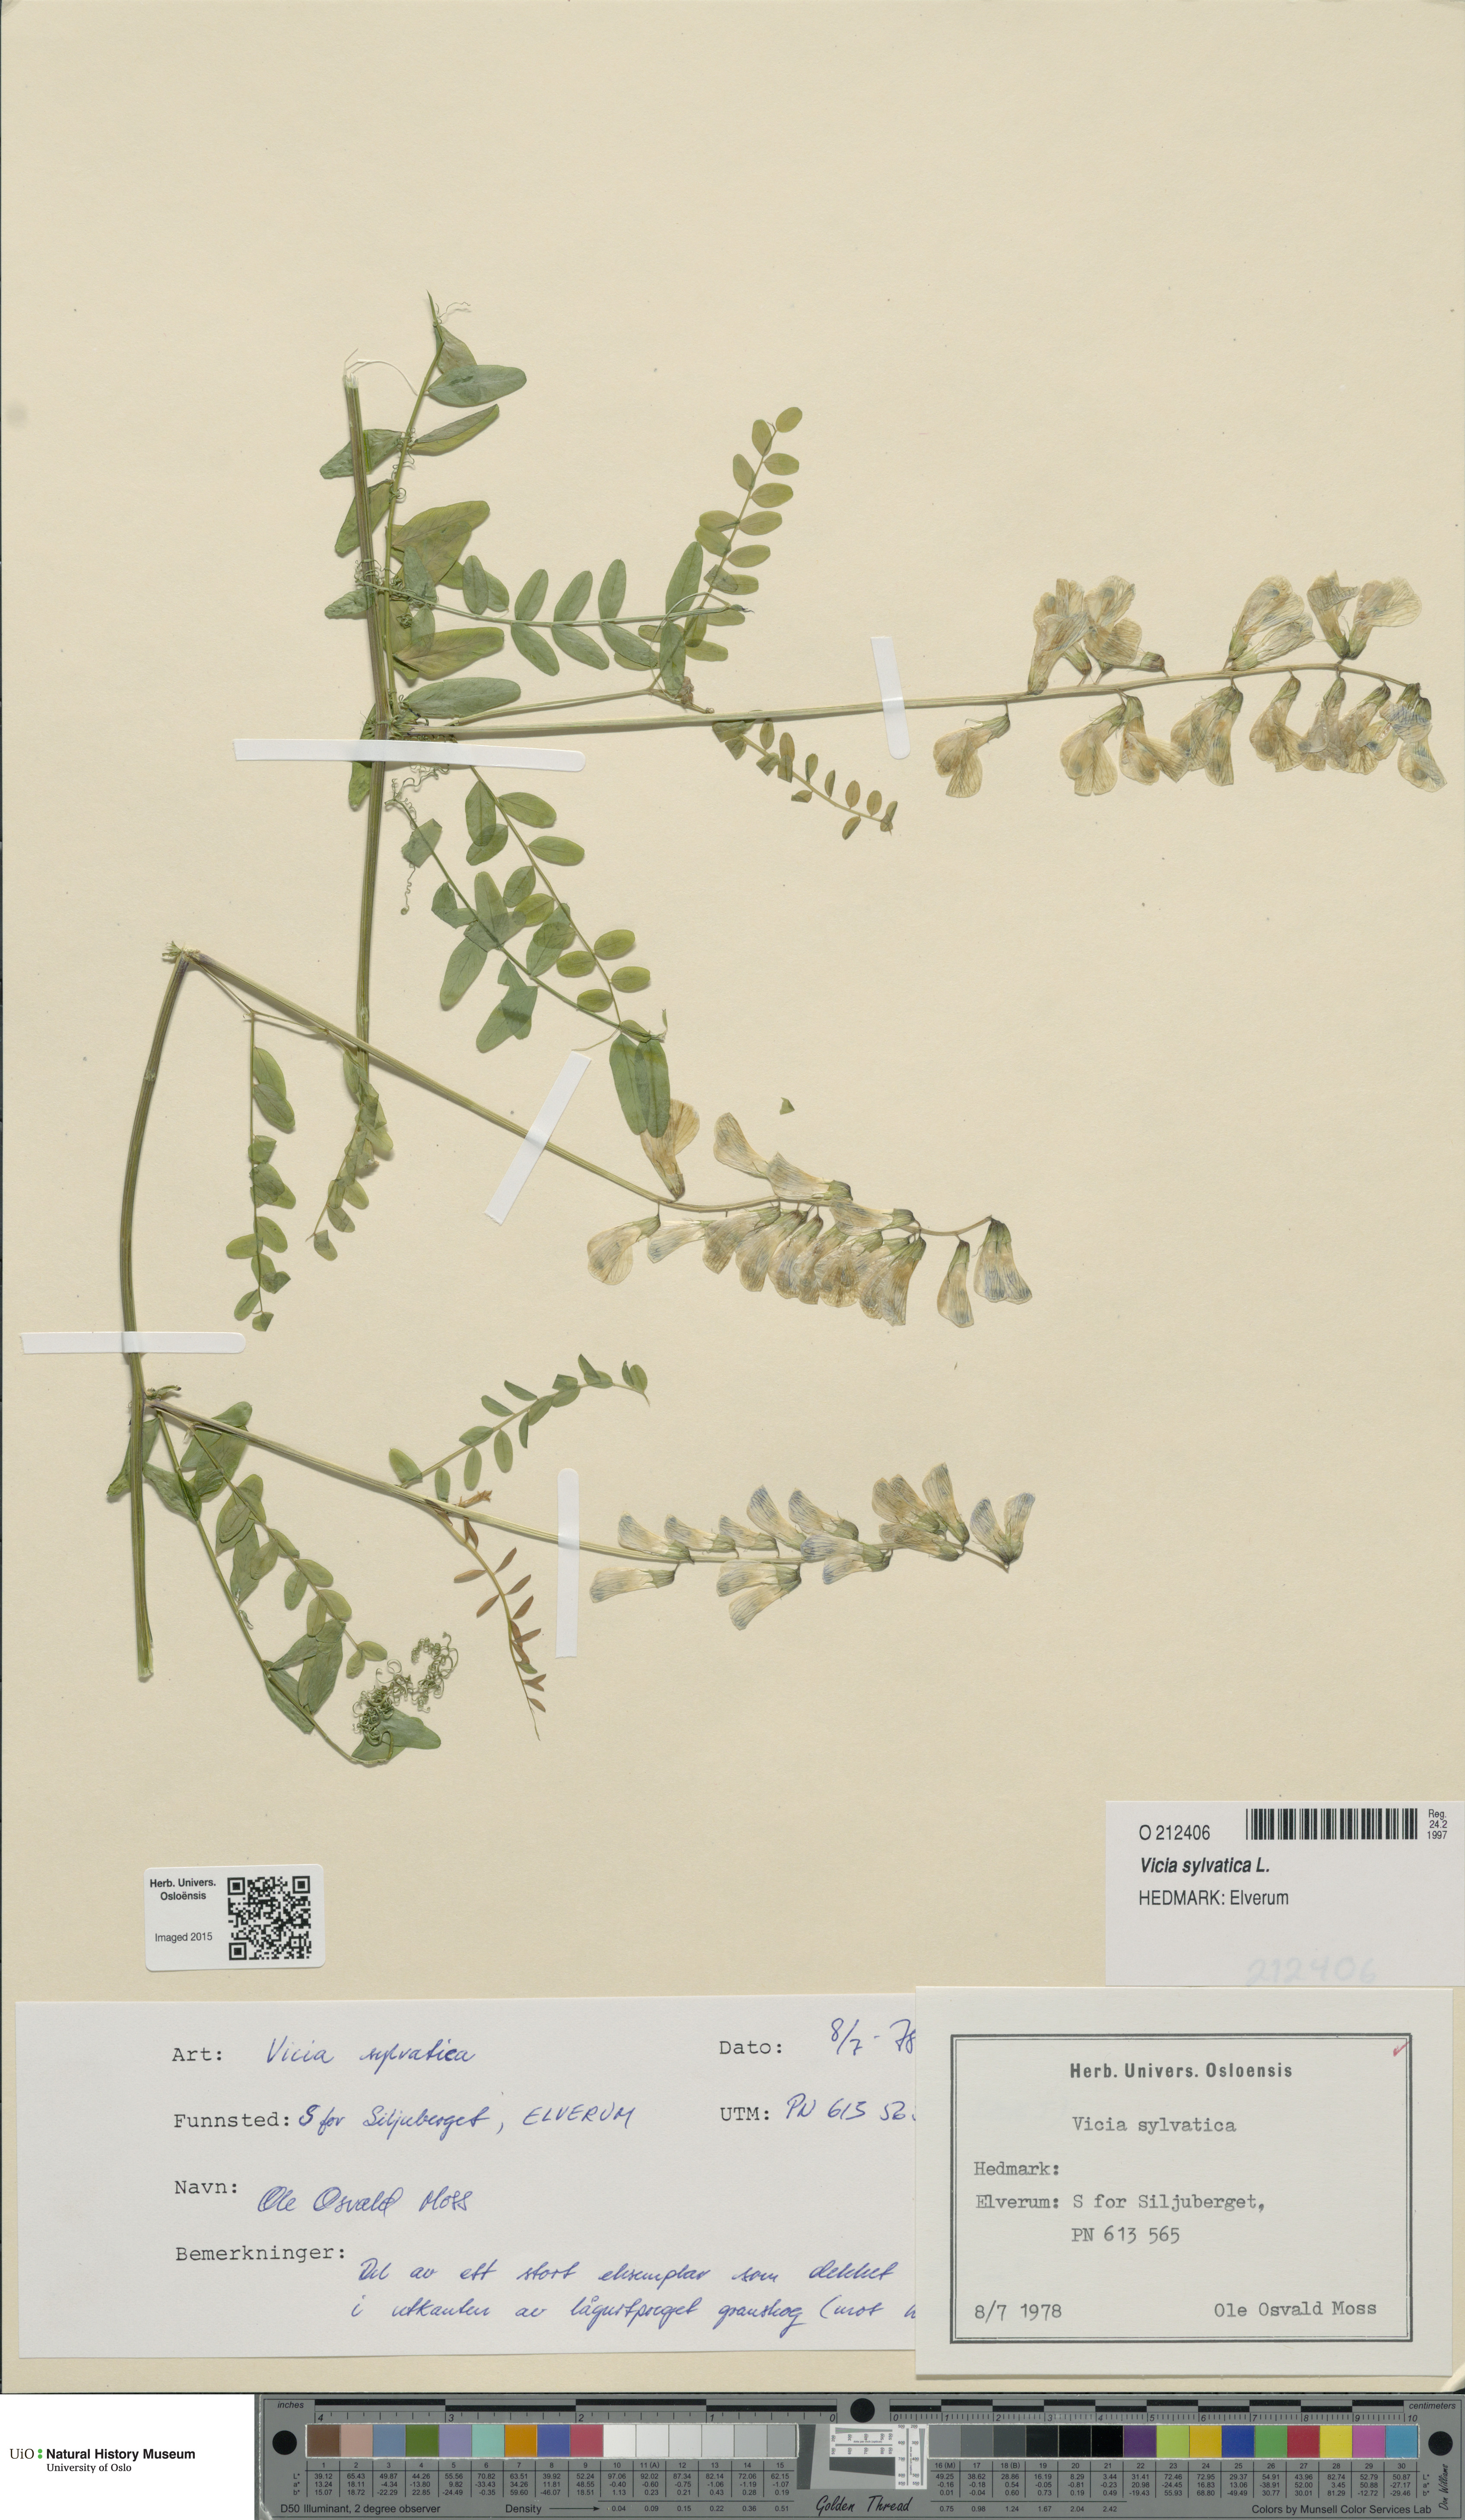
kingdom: Plantae
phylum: Tracheophyta
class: Magnoliopsida
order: Fabales
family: Fabaceae
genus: Vicia
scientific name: Vicia sylvatica
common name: Wood vetch
